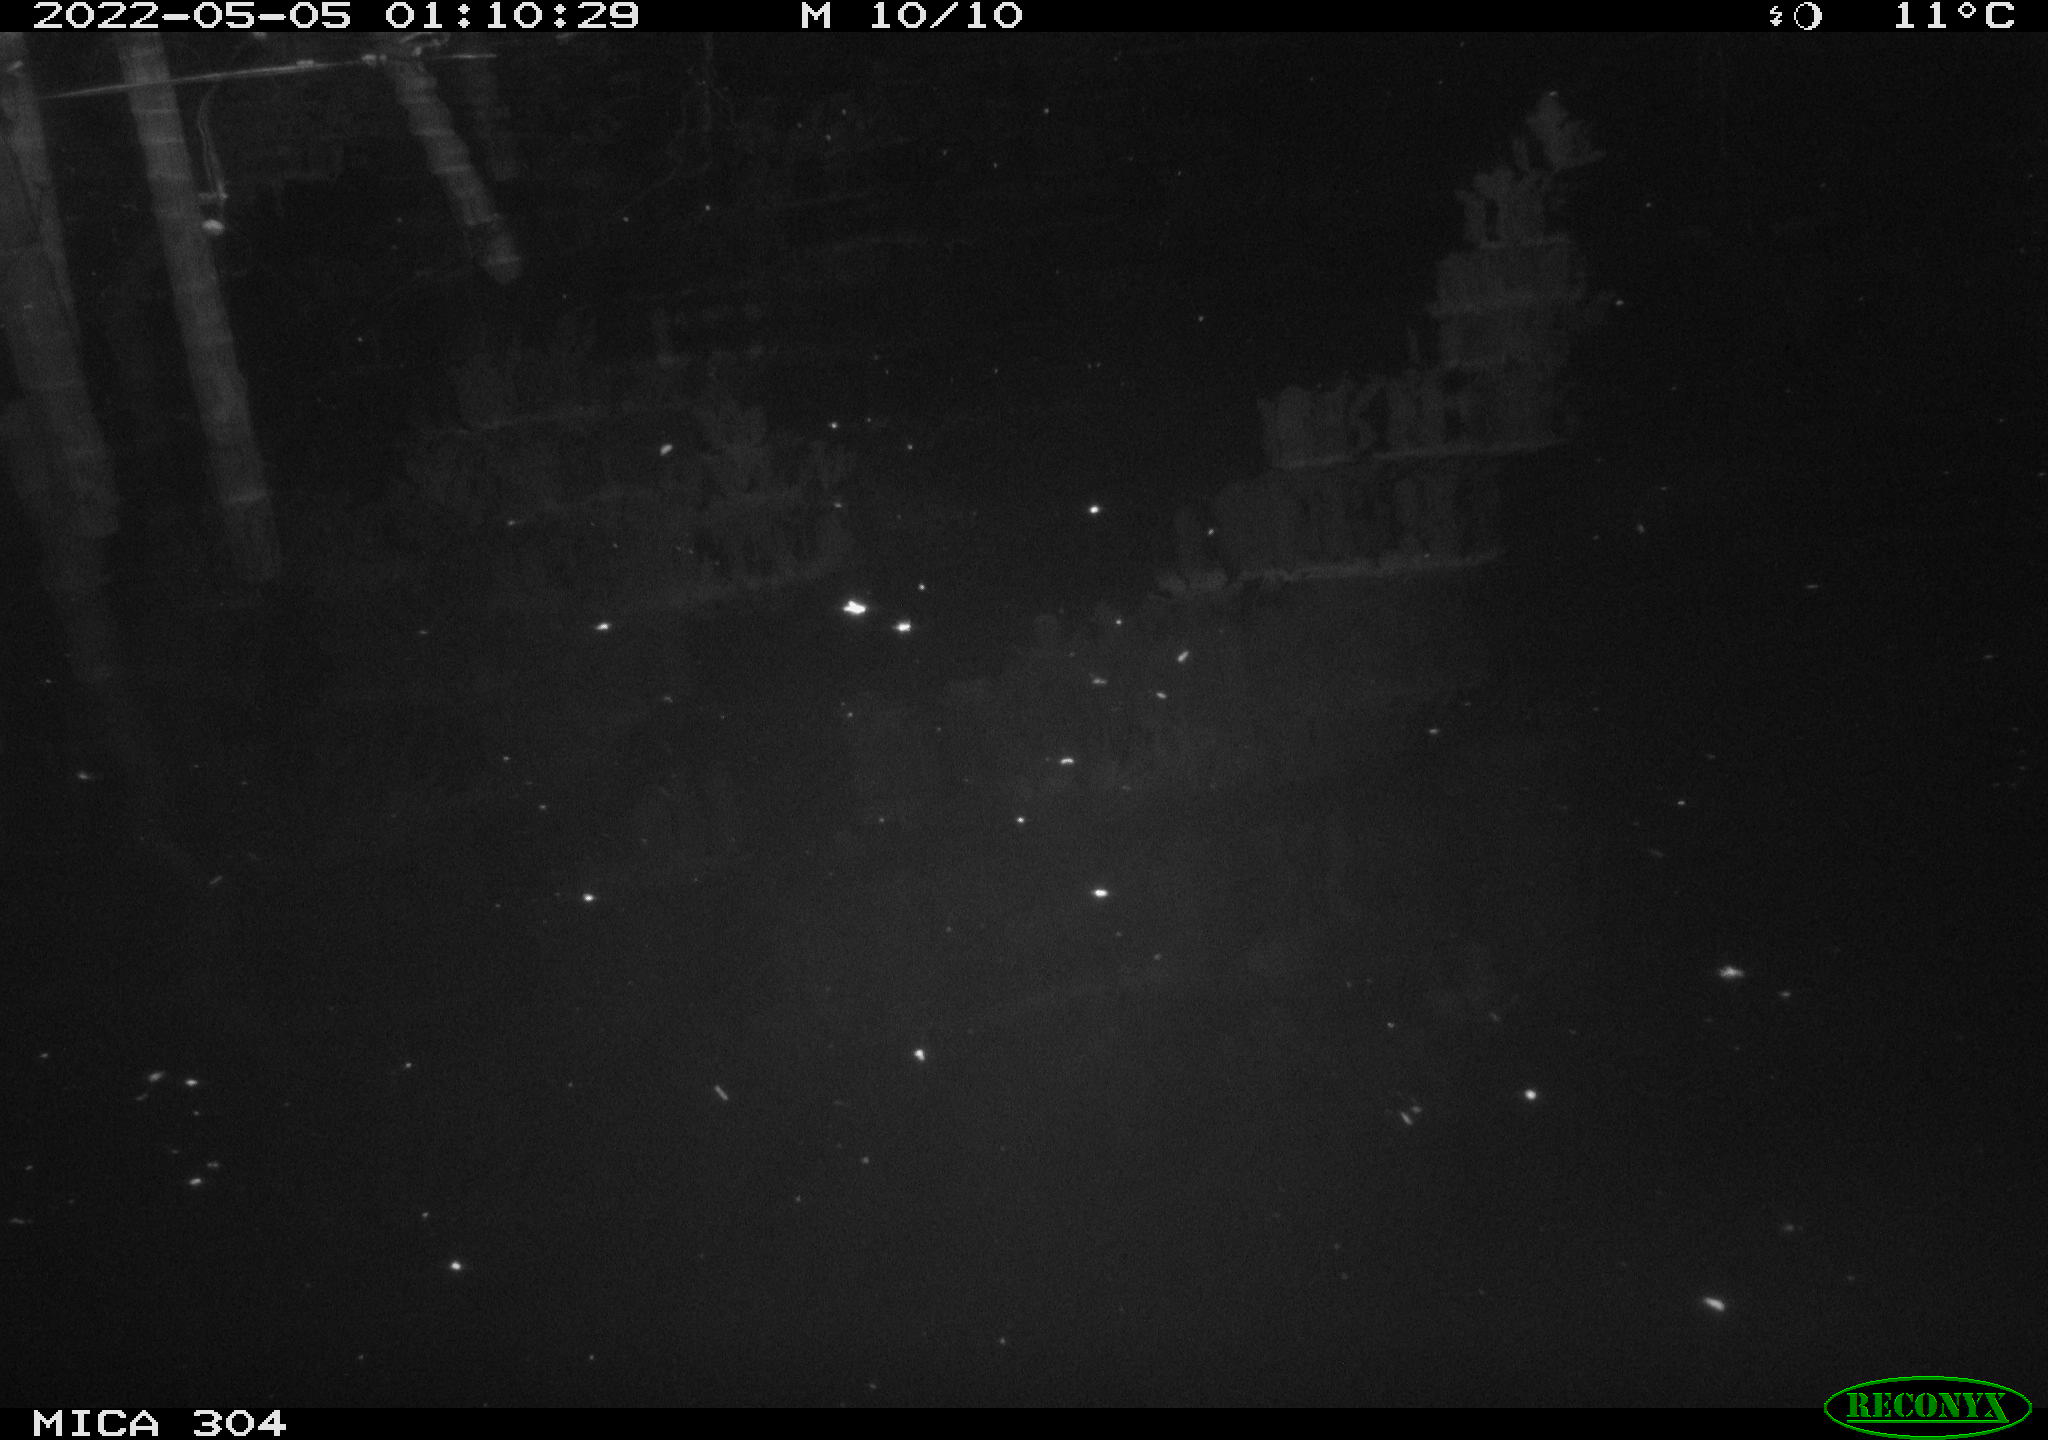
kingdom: Animalia
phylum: Chordata
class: Aves
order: Anseriformes
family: Anatidae
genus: Anas
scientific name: Anas platyrhynchos
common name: Mallard
